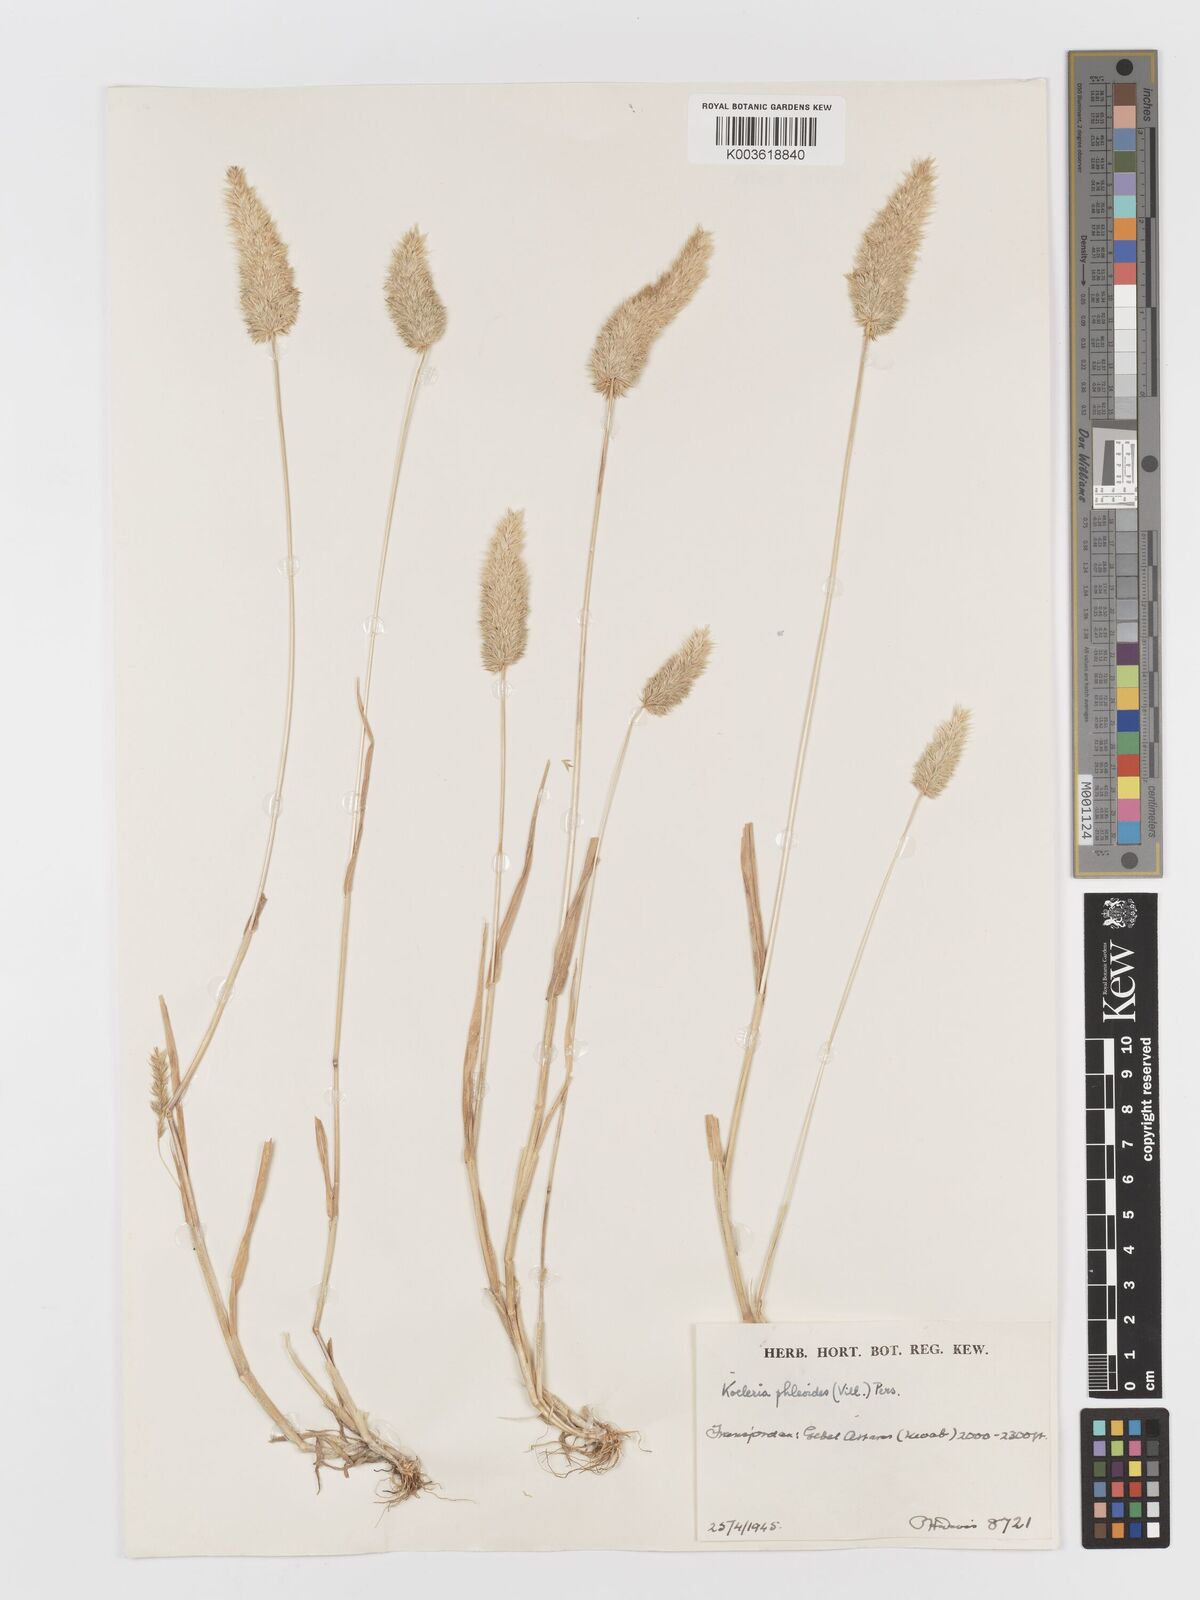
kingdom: Plantae
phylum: Tracheophyta
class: Liliopsida
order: Poales
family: Poaceae
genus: Rostraria
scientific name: Rostraria cristata
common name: Mediterranean hair-grass
